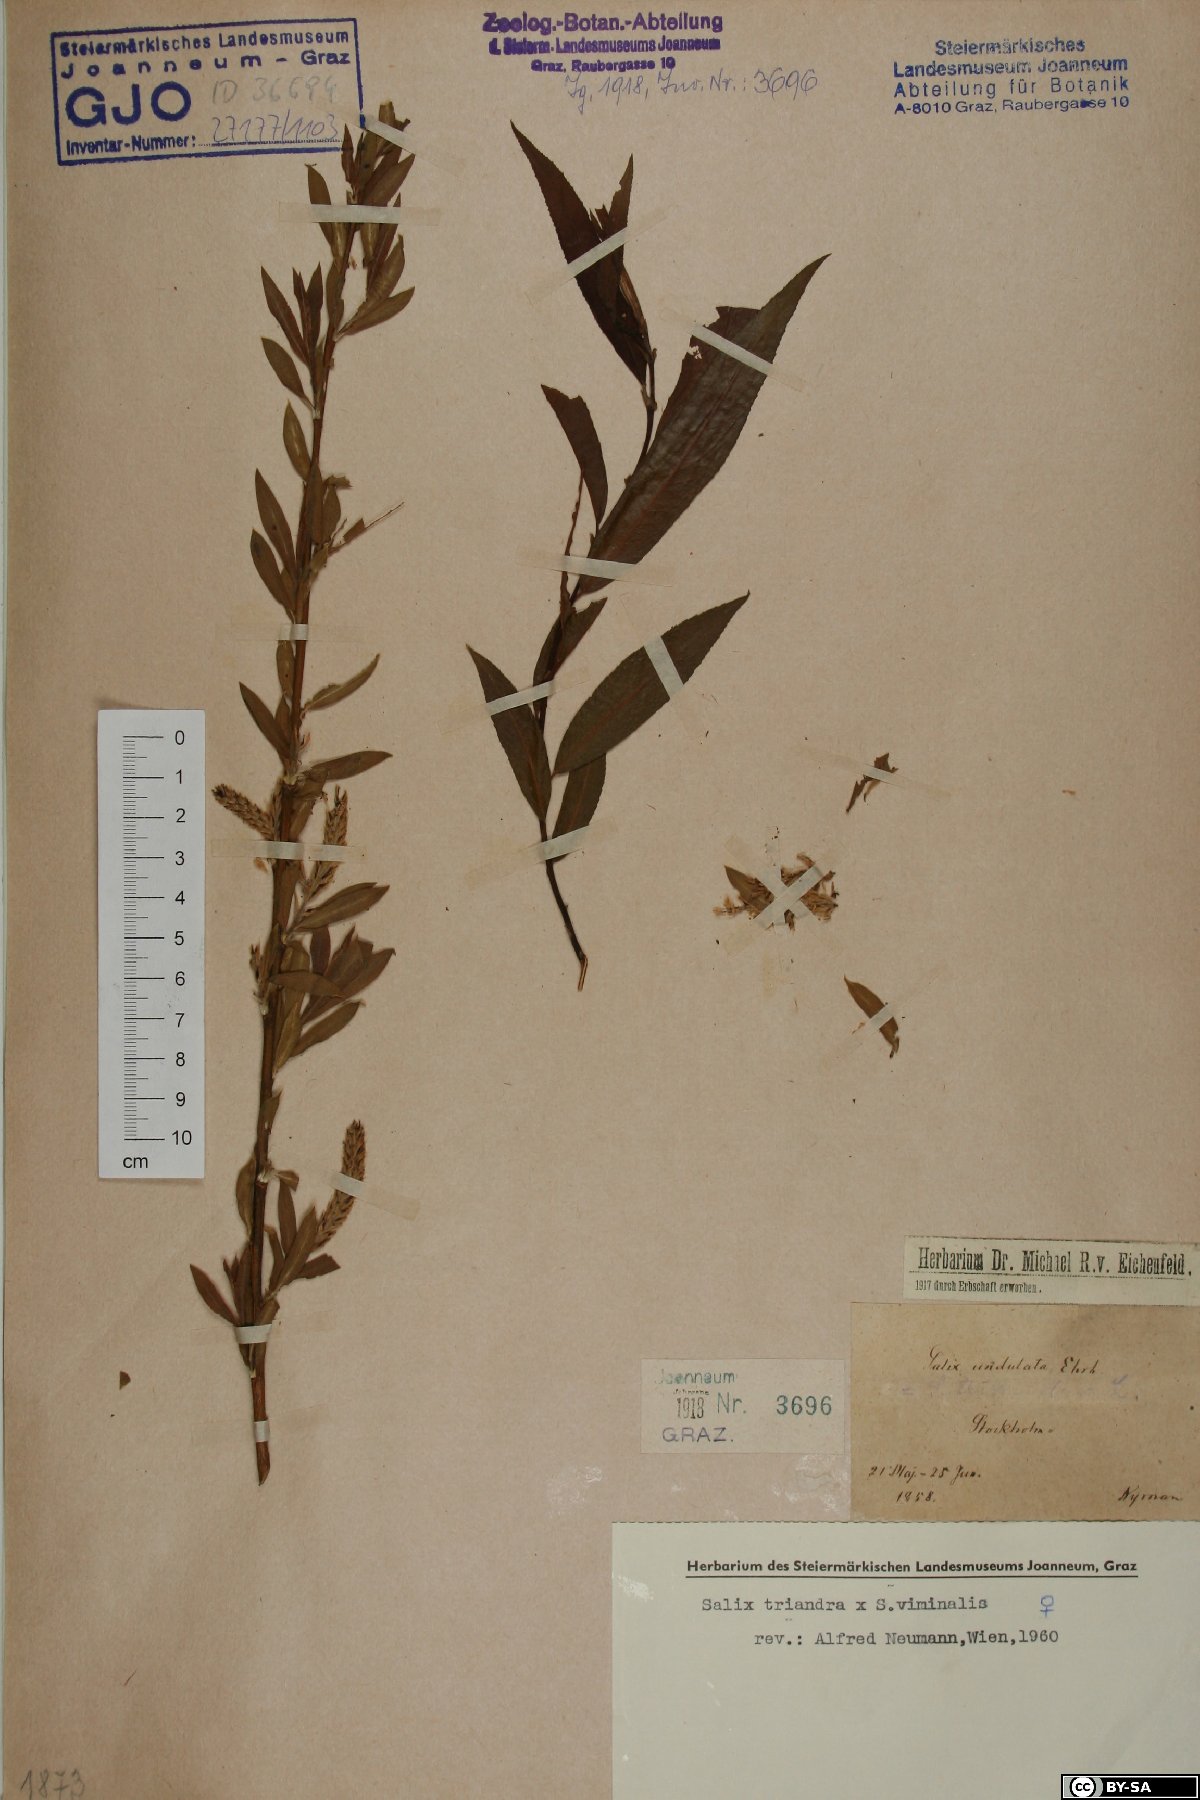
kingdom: Plantae
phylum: Tracheophyta
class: Magnoliopsida
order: Malpighiales
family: Salicaceae
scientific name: Salicaceae
